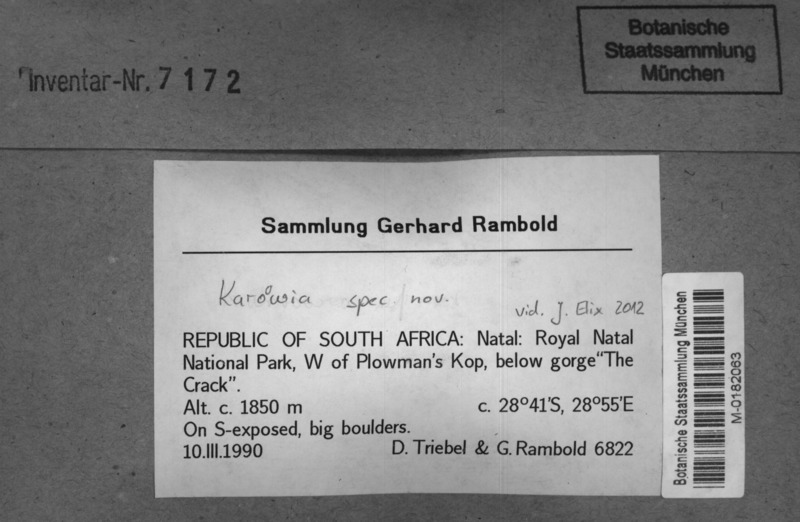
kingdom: Fungi
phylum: Ascomycota
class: Lecanoromycetes
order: Lecanorales
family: Parmeliaceae
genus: Karoowia
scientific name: Karoowia
